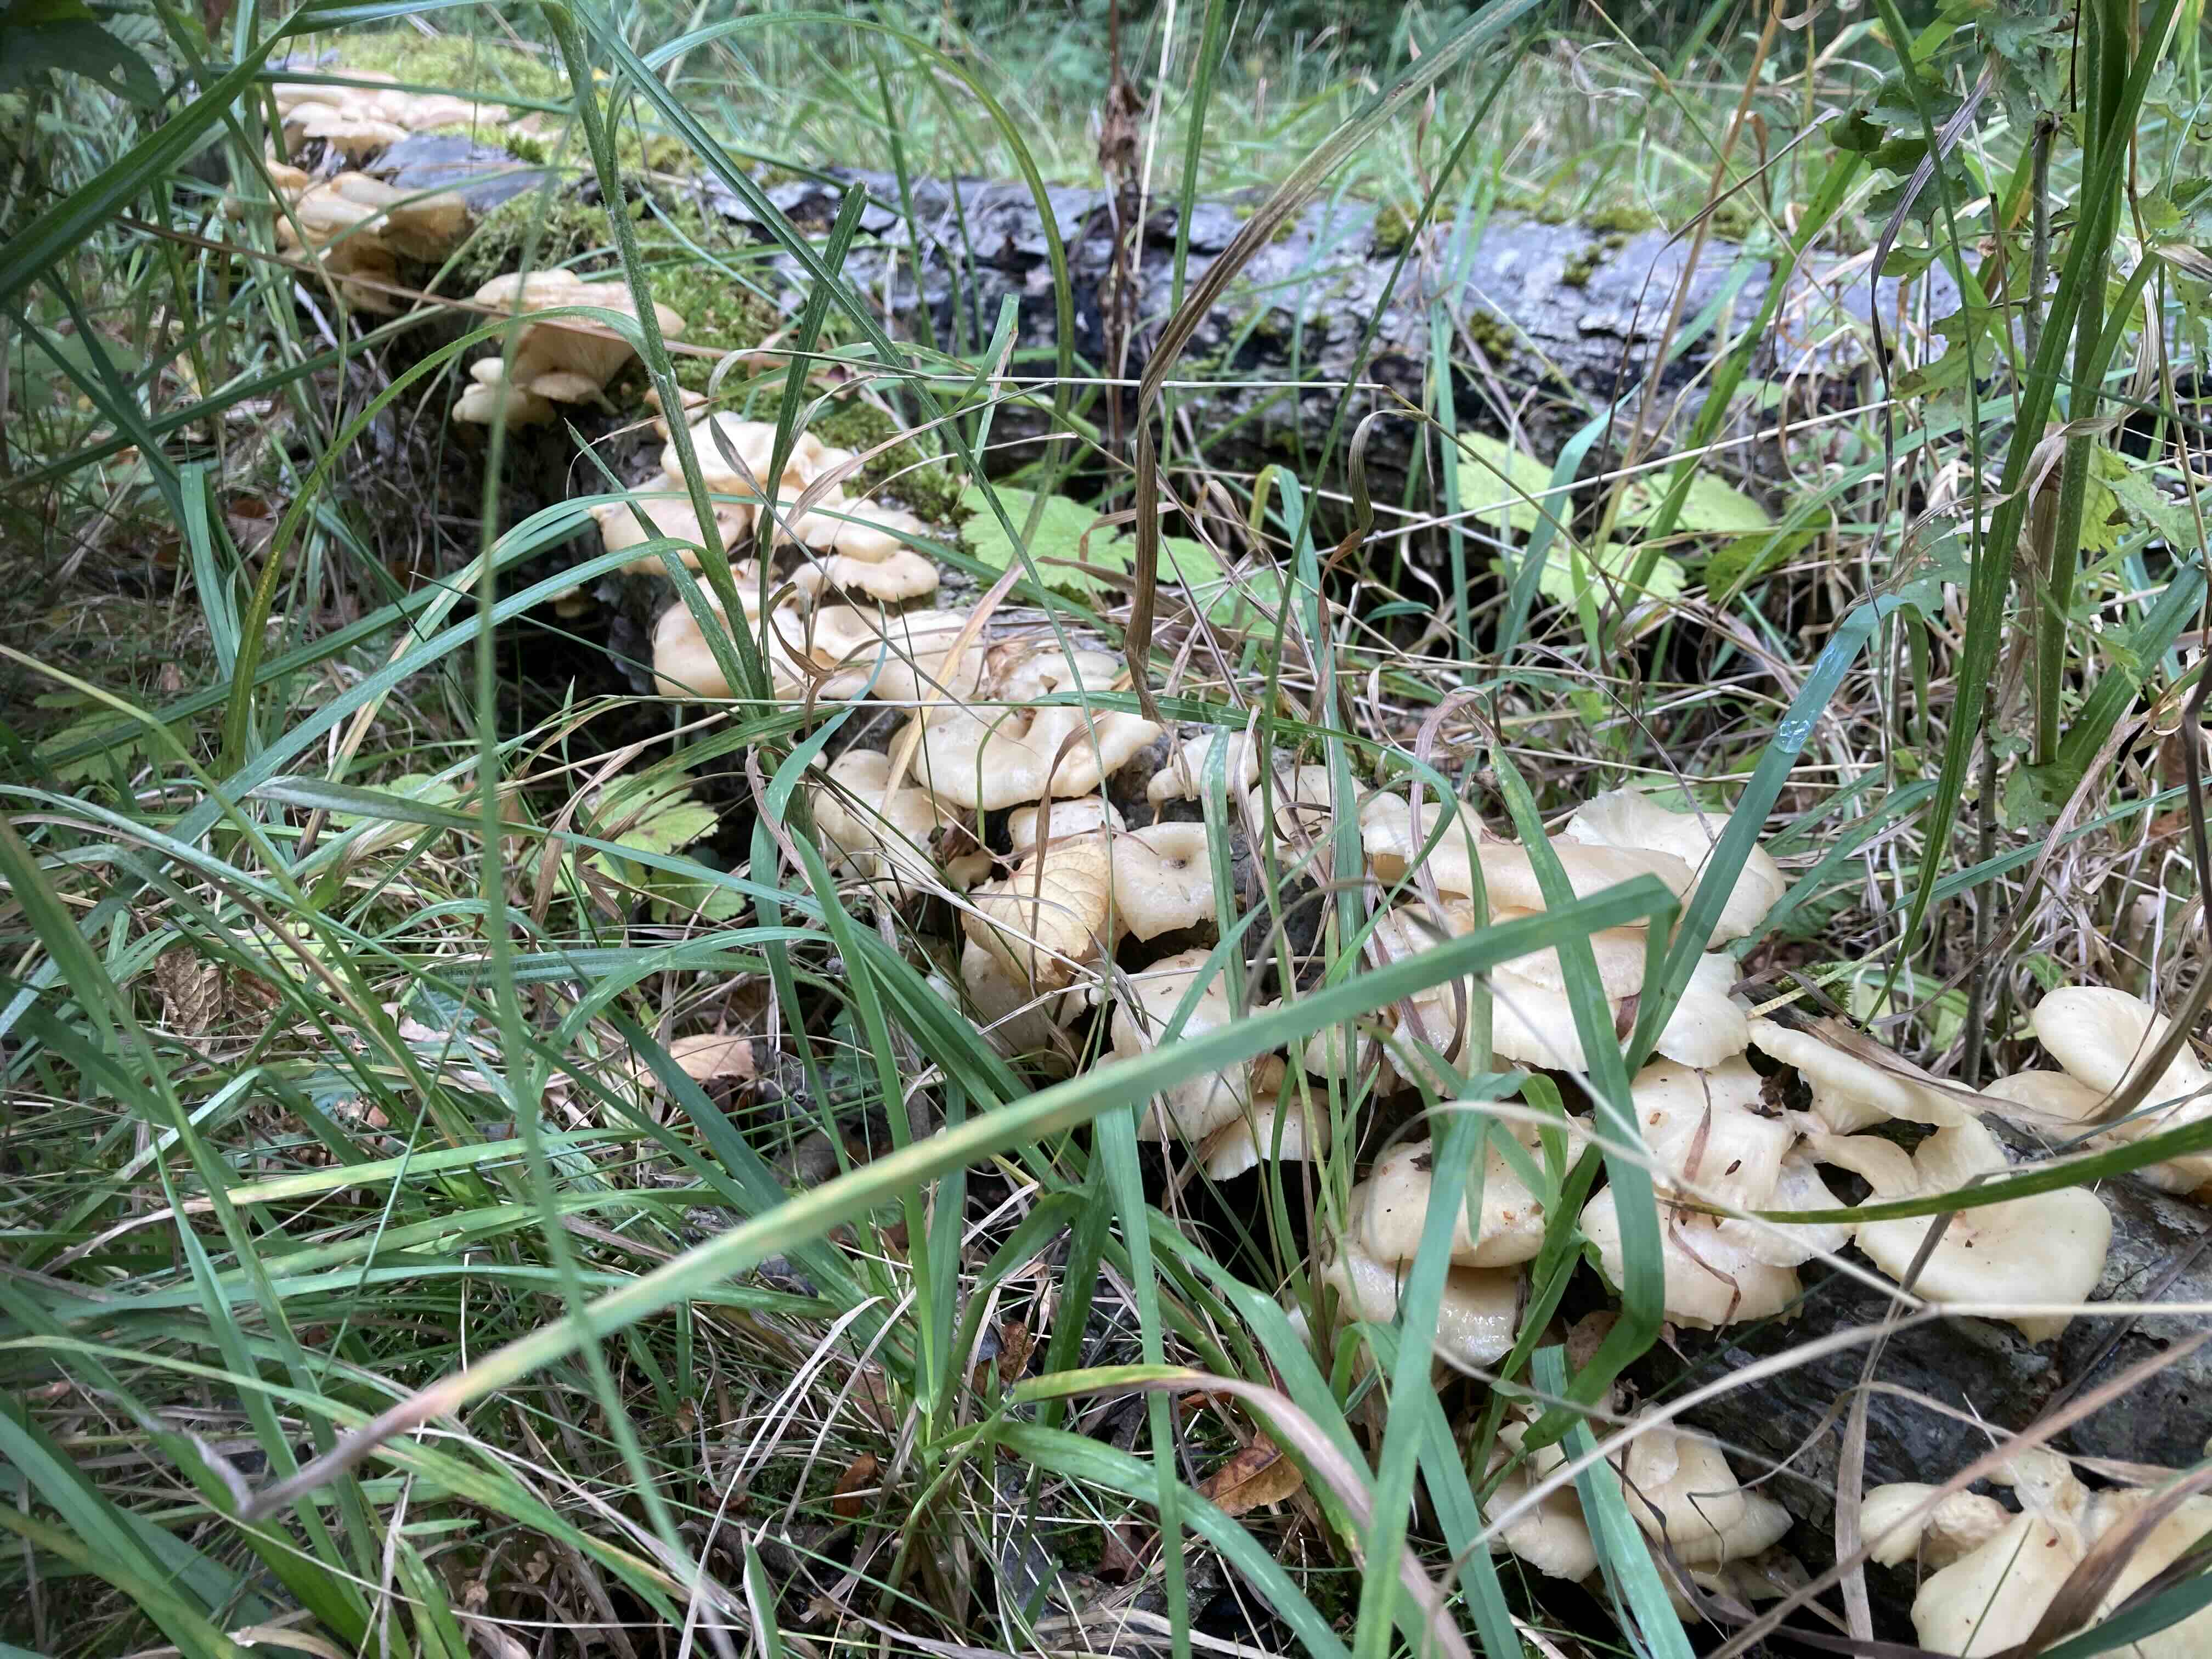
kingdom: Fungi
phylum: Basidiomycota
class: Agaricomycetes
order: Agaricales
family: Pleurotaceae
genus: Pleurotus
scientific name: Pleurotus pulmonarius
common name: sommer-østershat
